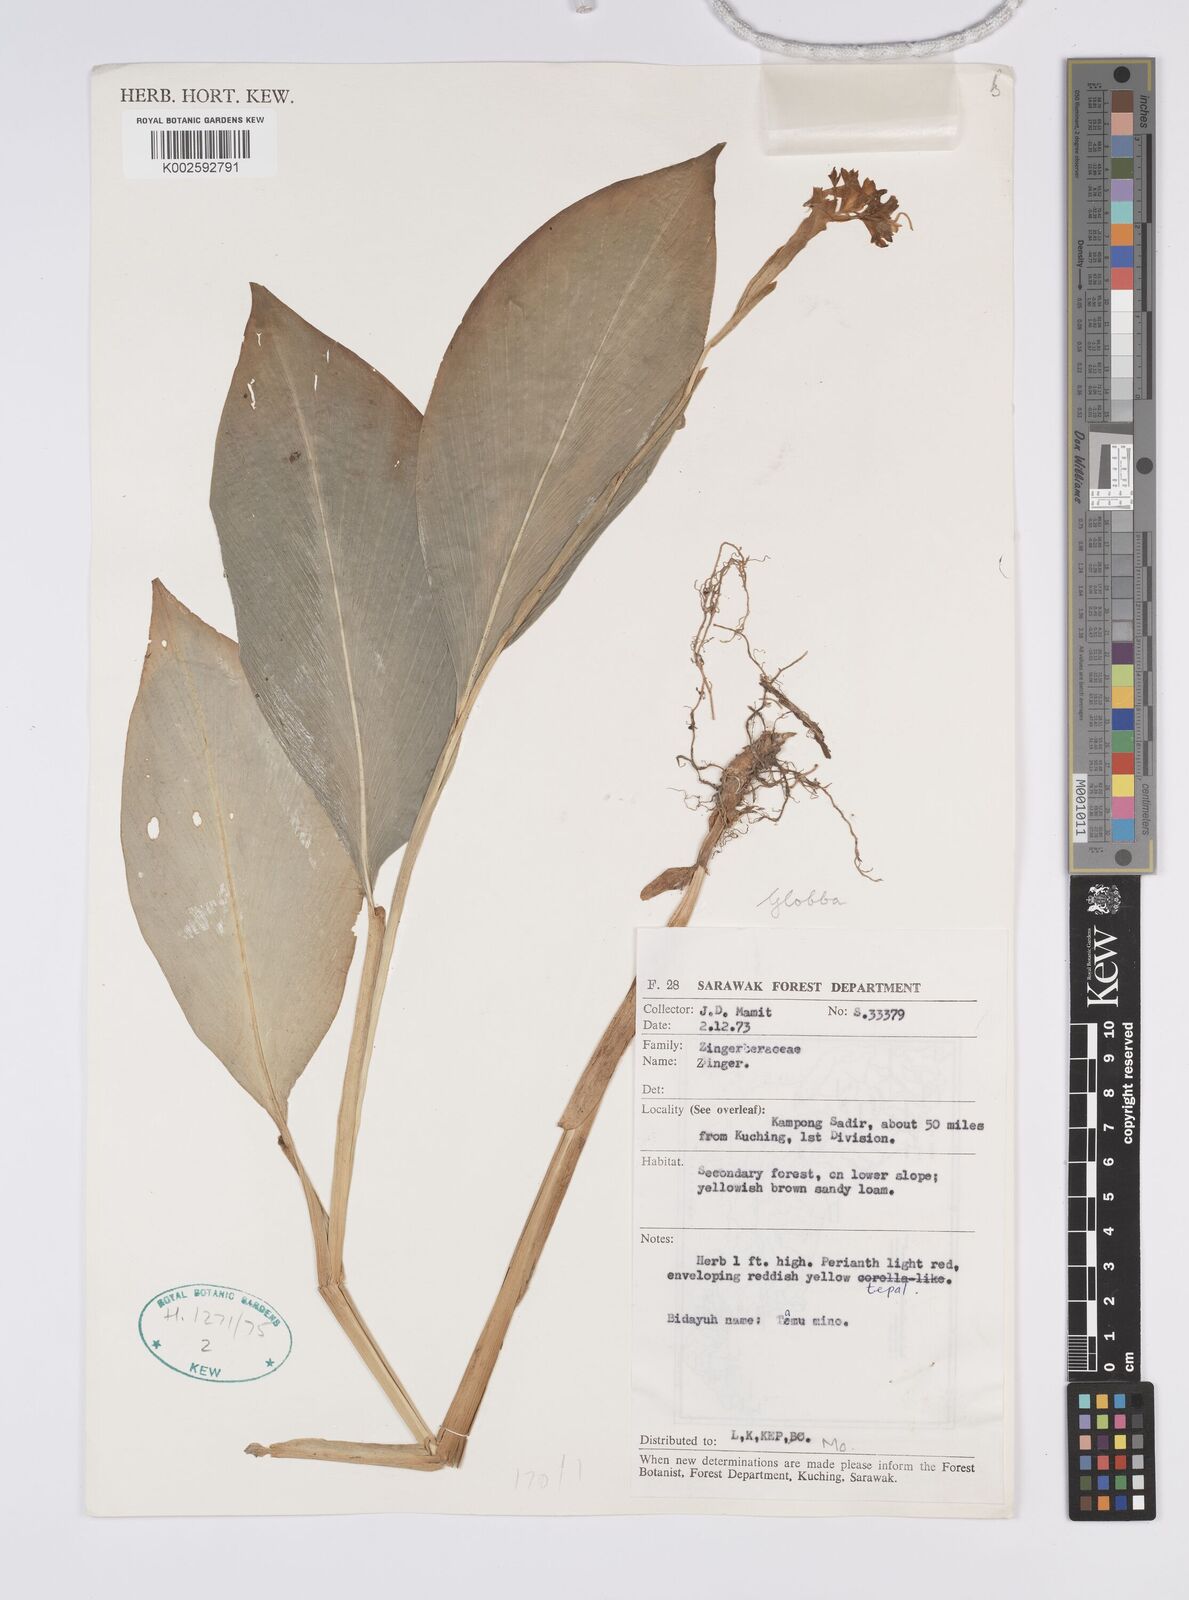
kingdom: Plantae
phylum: Tracheophyta
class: Liliopsida
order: Zingiberales
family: Zingiberaceae
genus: Globba
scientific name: Globba atrosanguinea
